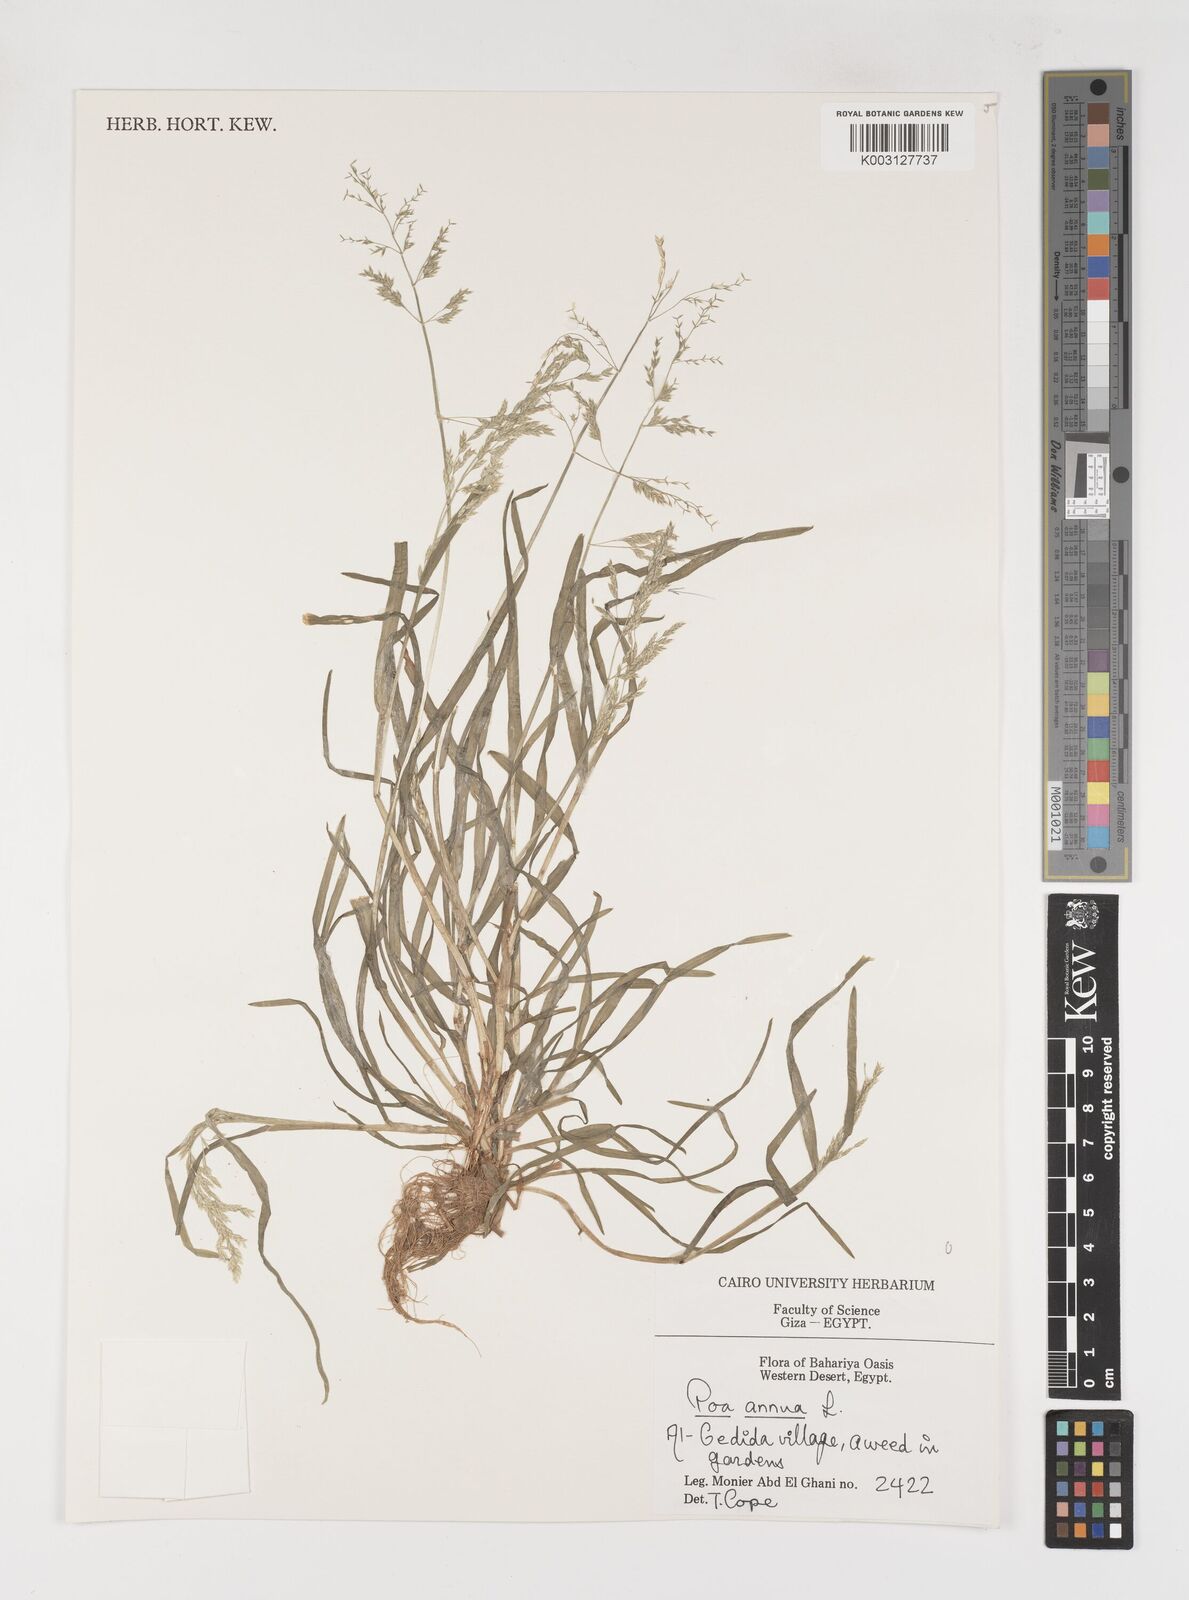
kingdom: Plantae
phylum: Tracheophyta
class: Liliopsida
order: Poales
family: Poaceae
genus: Poa
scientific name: Poa annua
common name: Annual bluegrass
